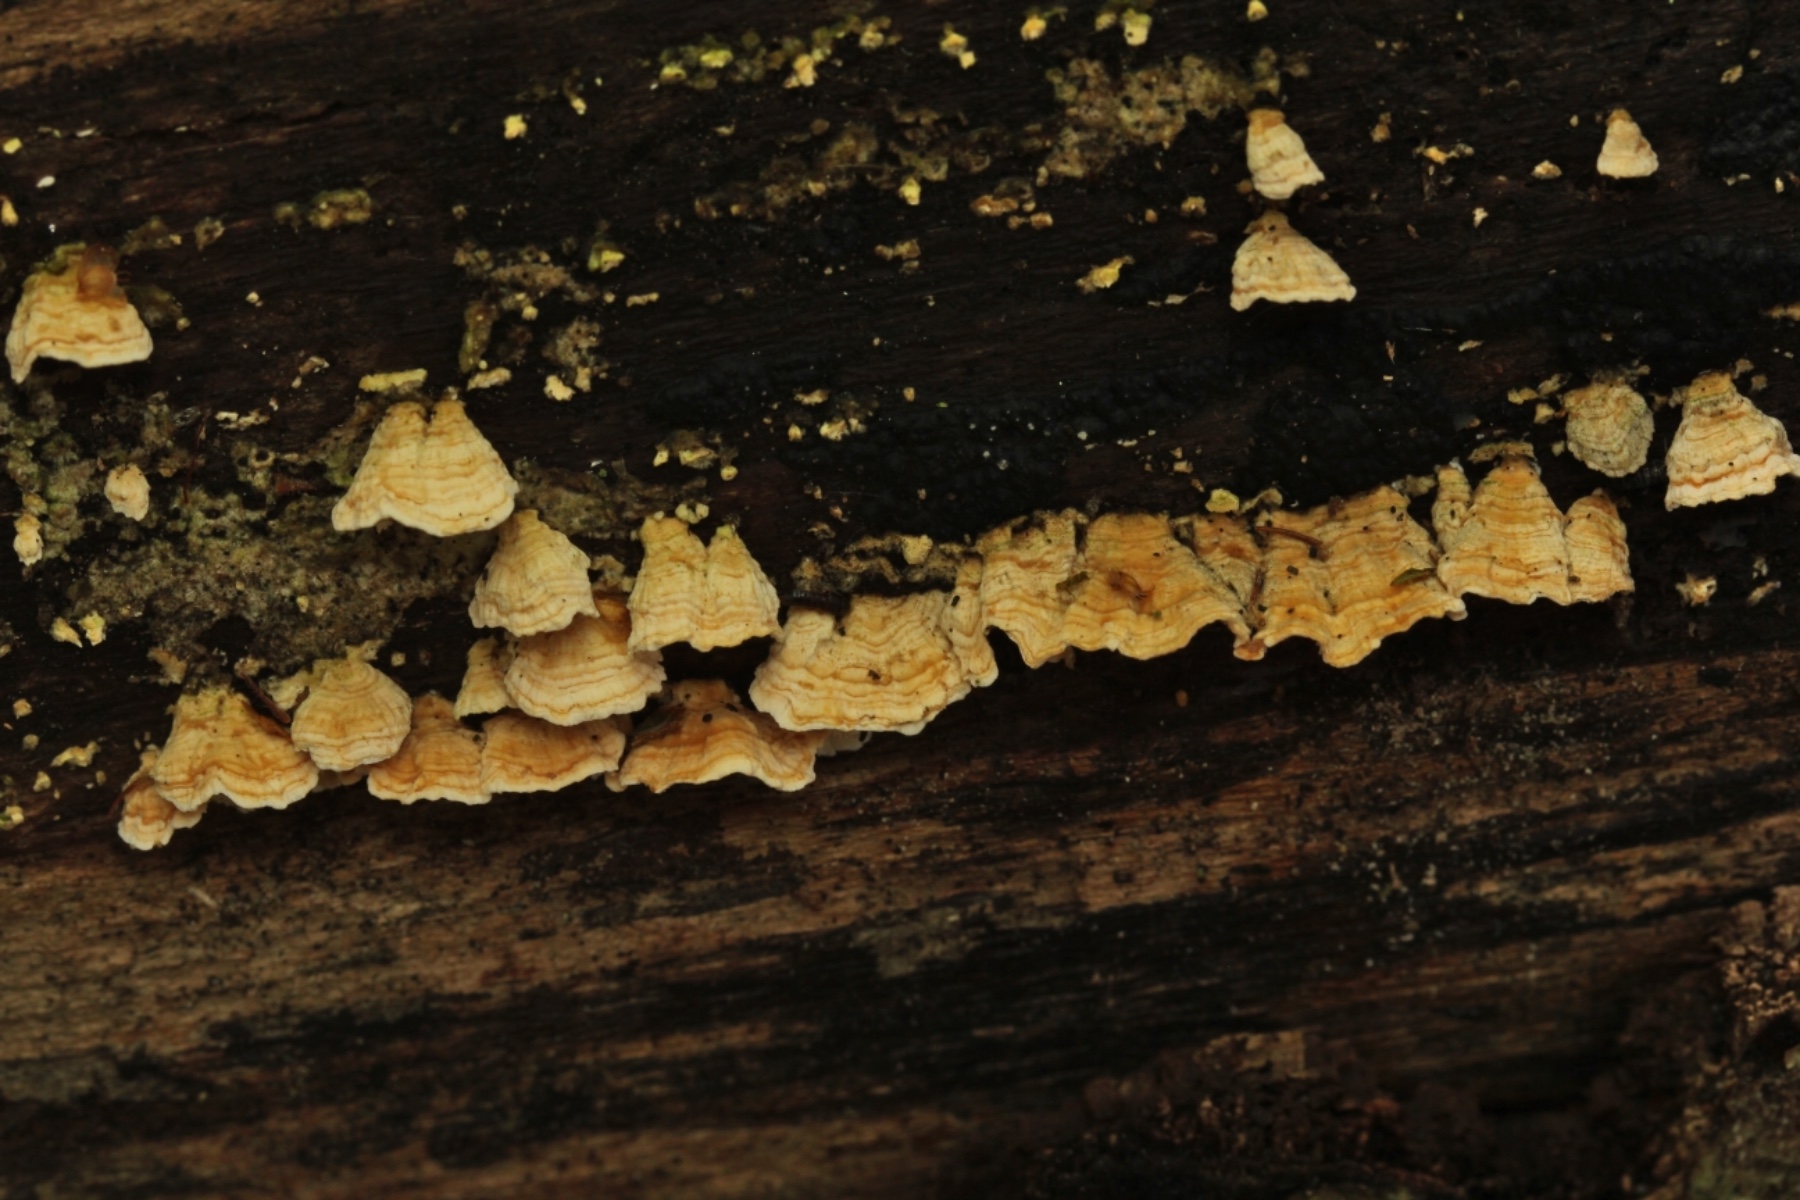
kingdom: Fungi
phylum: Basidiomycota
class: Agaricomycetes
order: Polyporales
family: Steccherinaceae
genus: Steccherinum
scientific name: Steccherinum ochraceum
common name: almindelig skønpig
